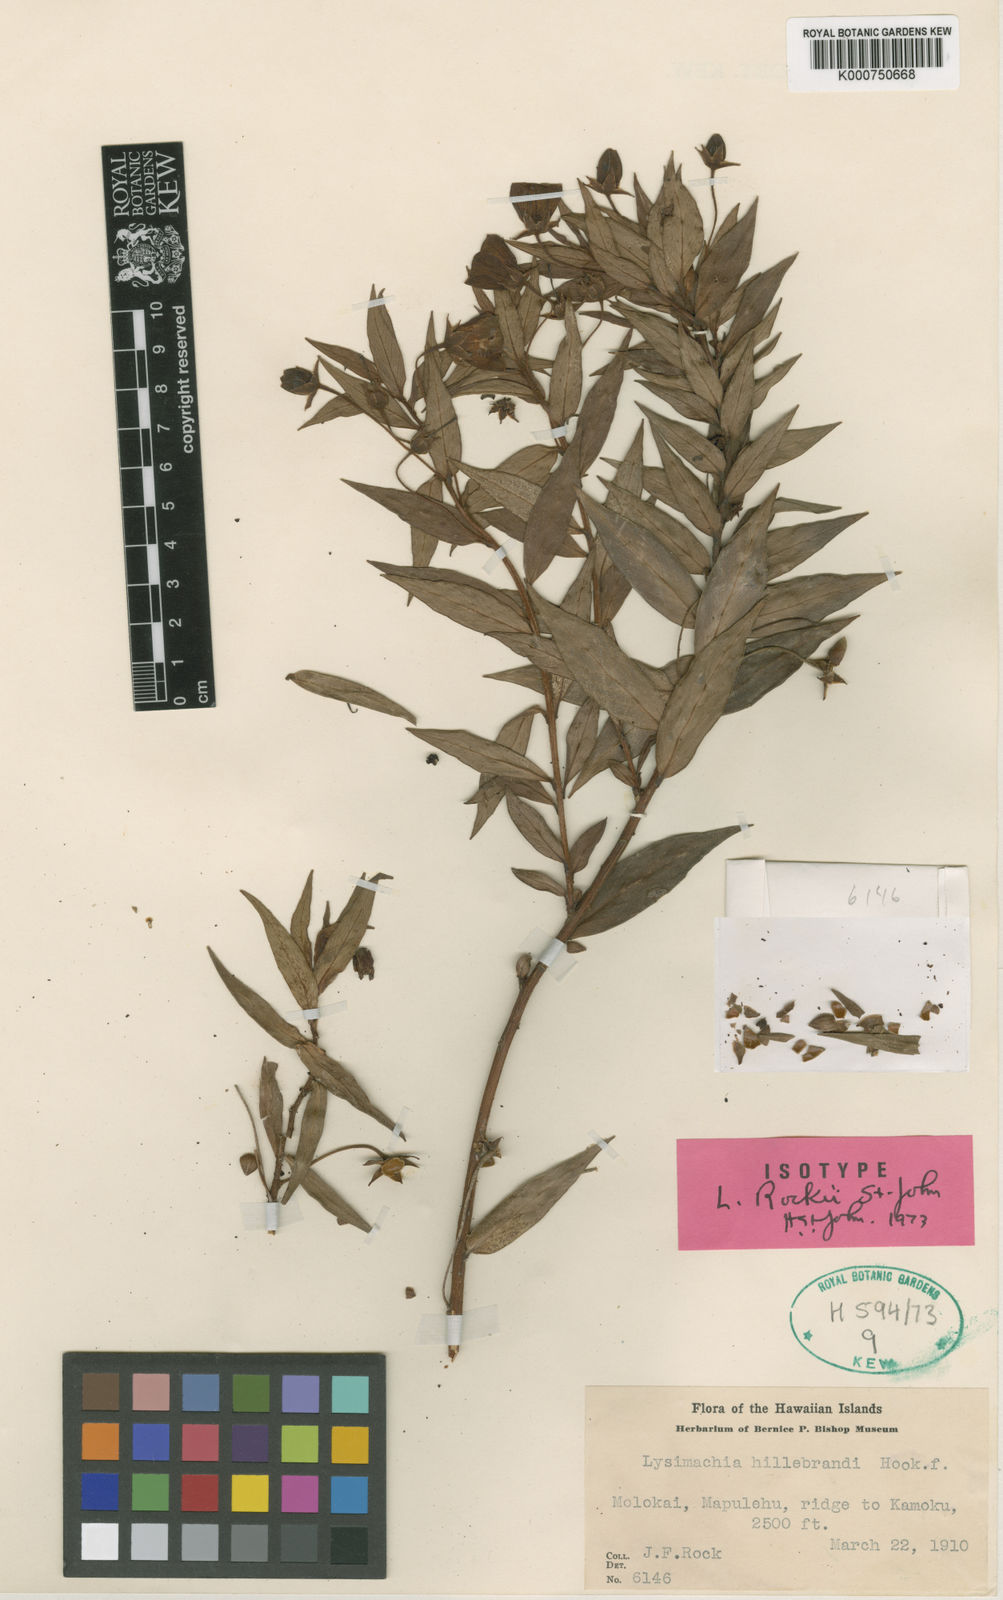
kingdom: Plantae
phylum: Tracheophyta
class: Magnoliopsida
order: Ericales
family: Primulaceae
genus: Lysimachia
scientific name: Lysimachia remyi
